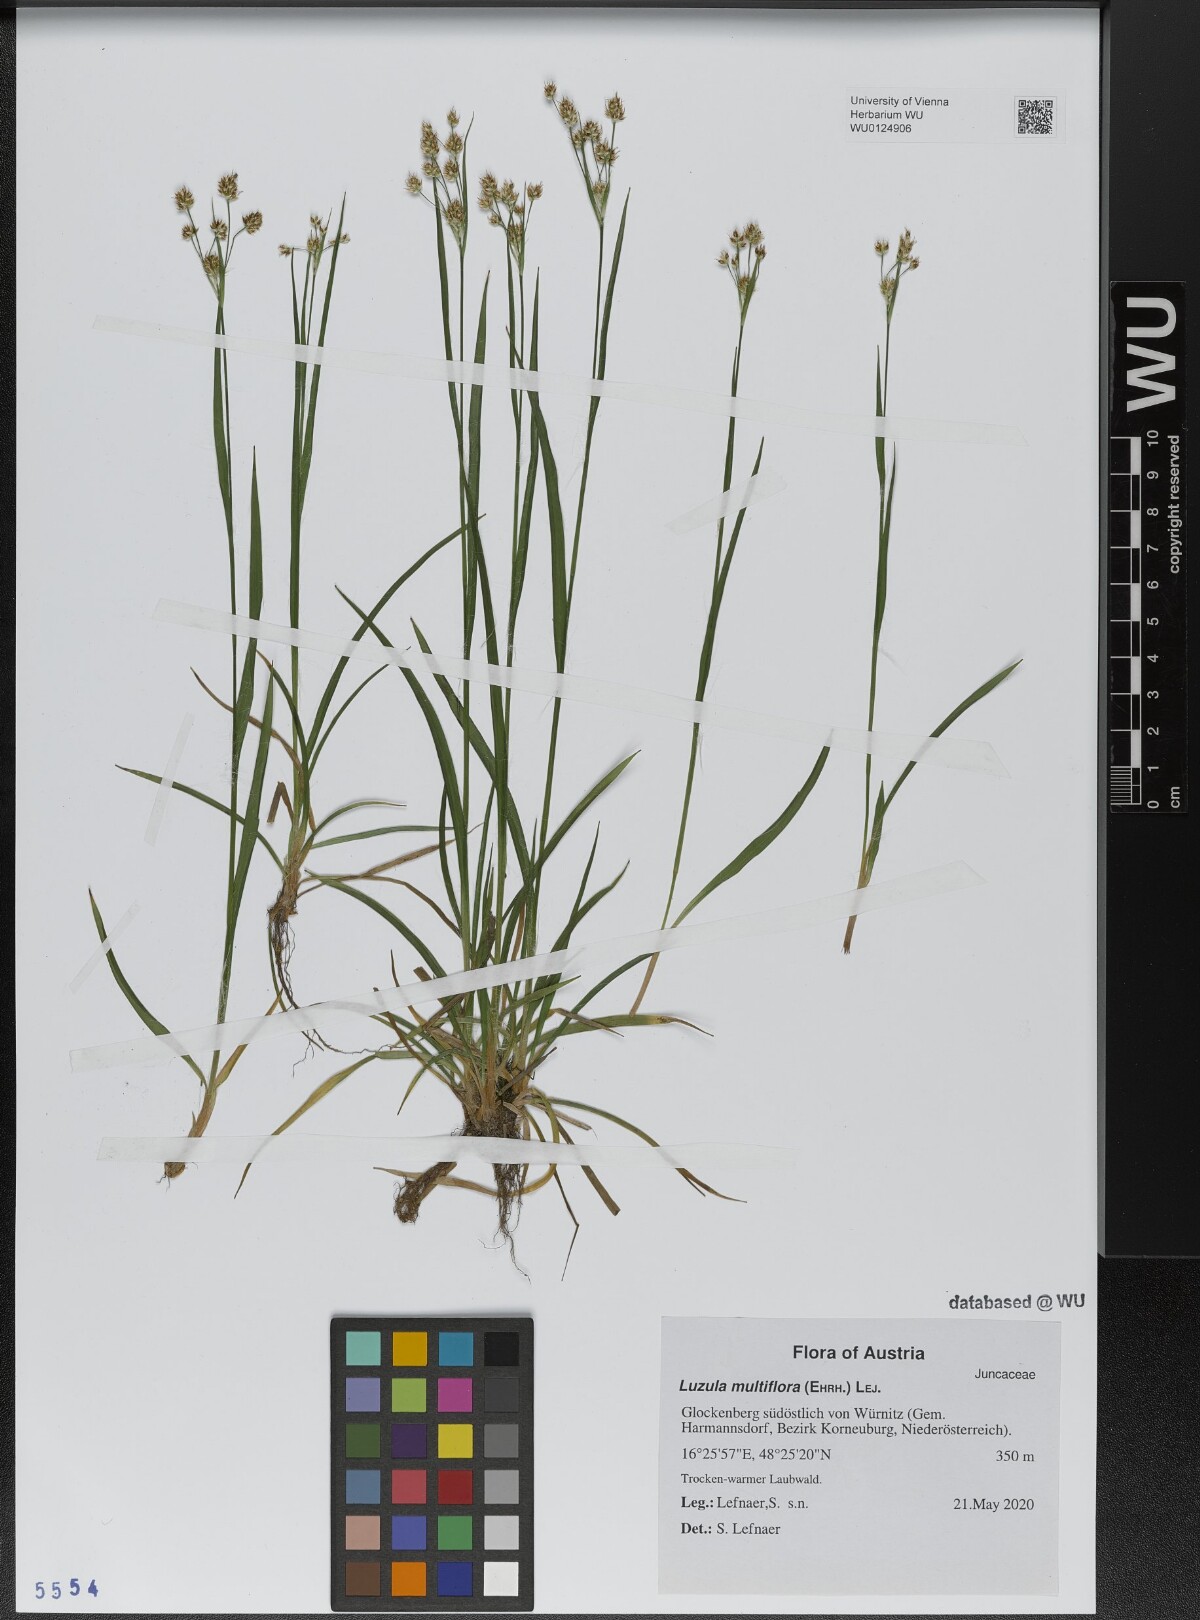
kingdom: Plantae
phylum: Tracheophyta
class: Liliopsida
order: Poales
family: Juncaceae
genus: Luzula
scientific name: Luzula multiflora
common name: Heath wood-rush
